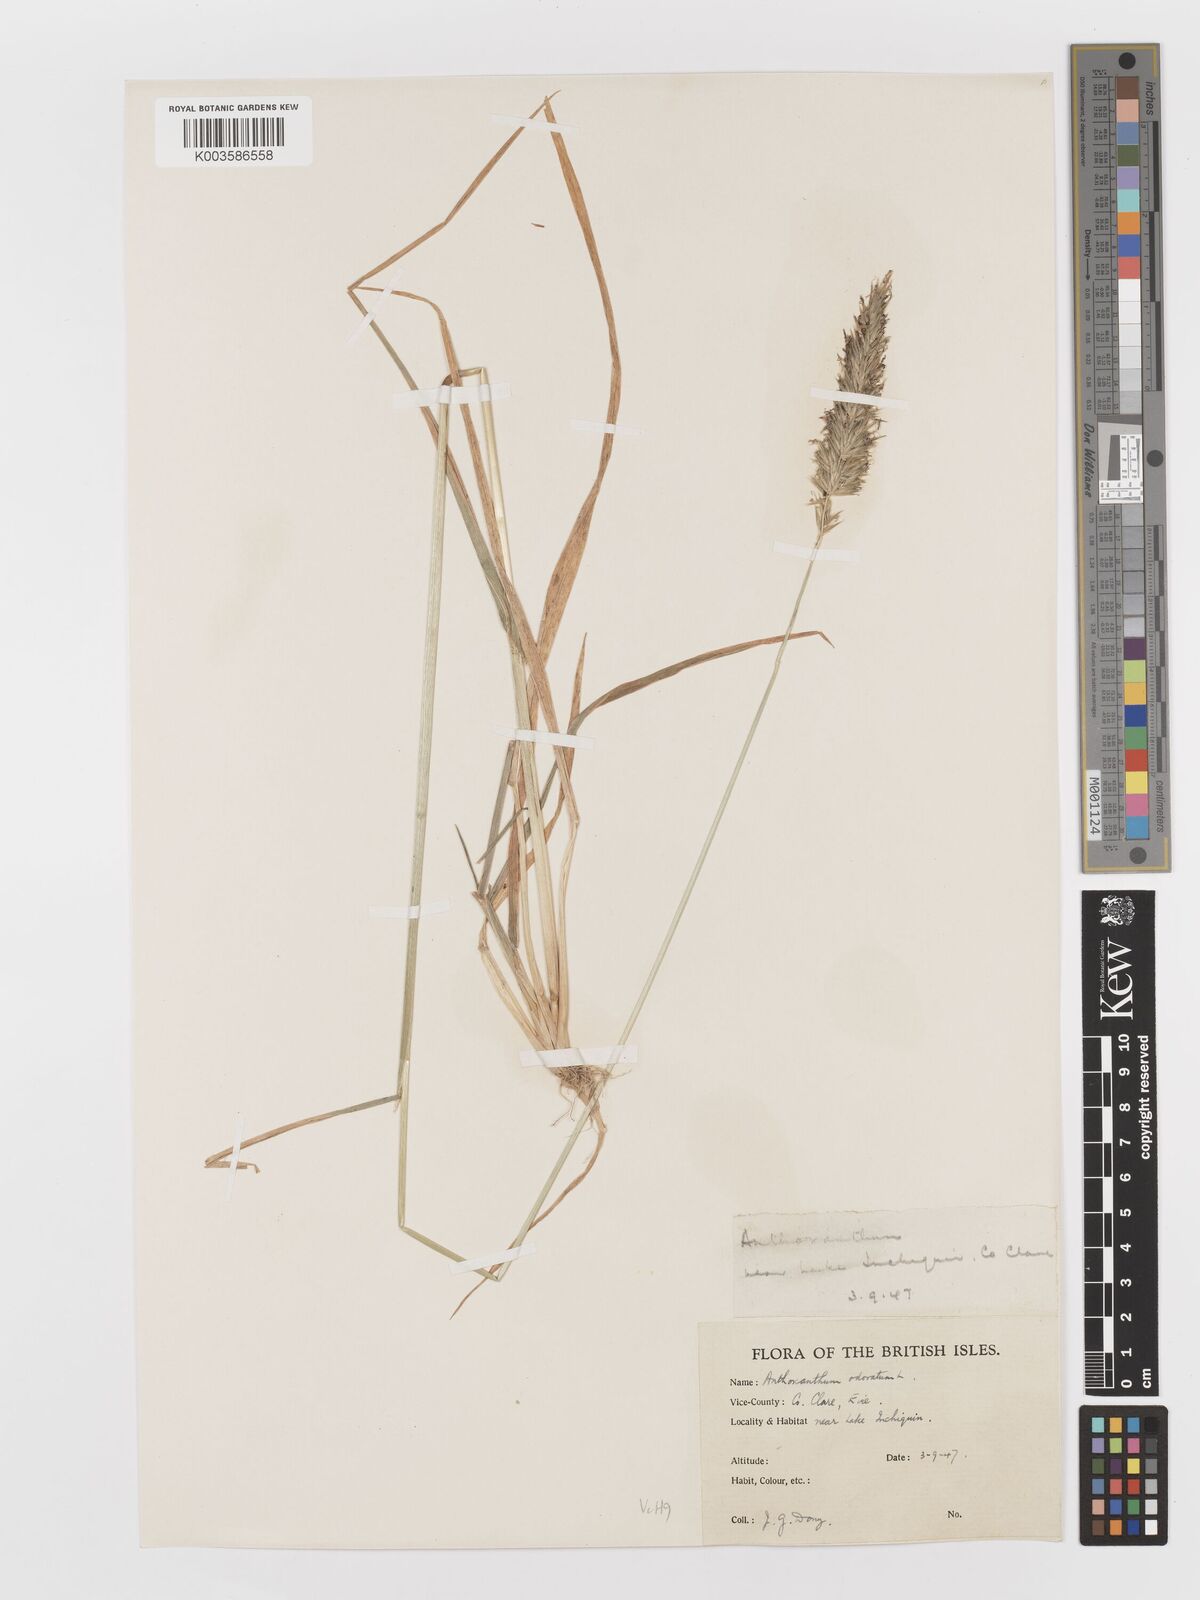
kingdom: Plantae
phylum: Tracheophyta
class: Liliopsida
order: Poales
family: Poaceae
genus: Anthoxanthum
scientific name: Anthoxanthum odoratum
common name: Sweet vernalgrass
